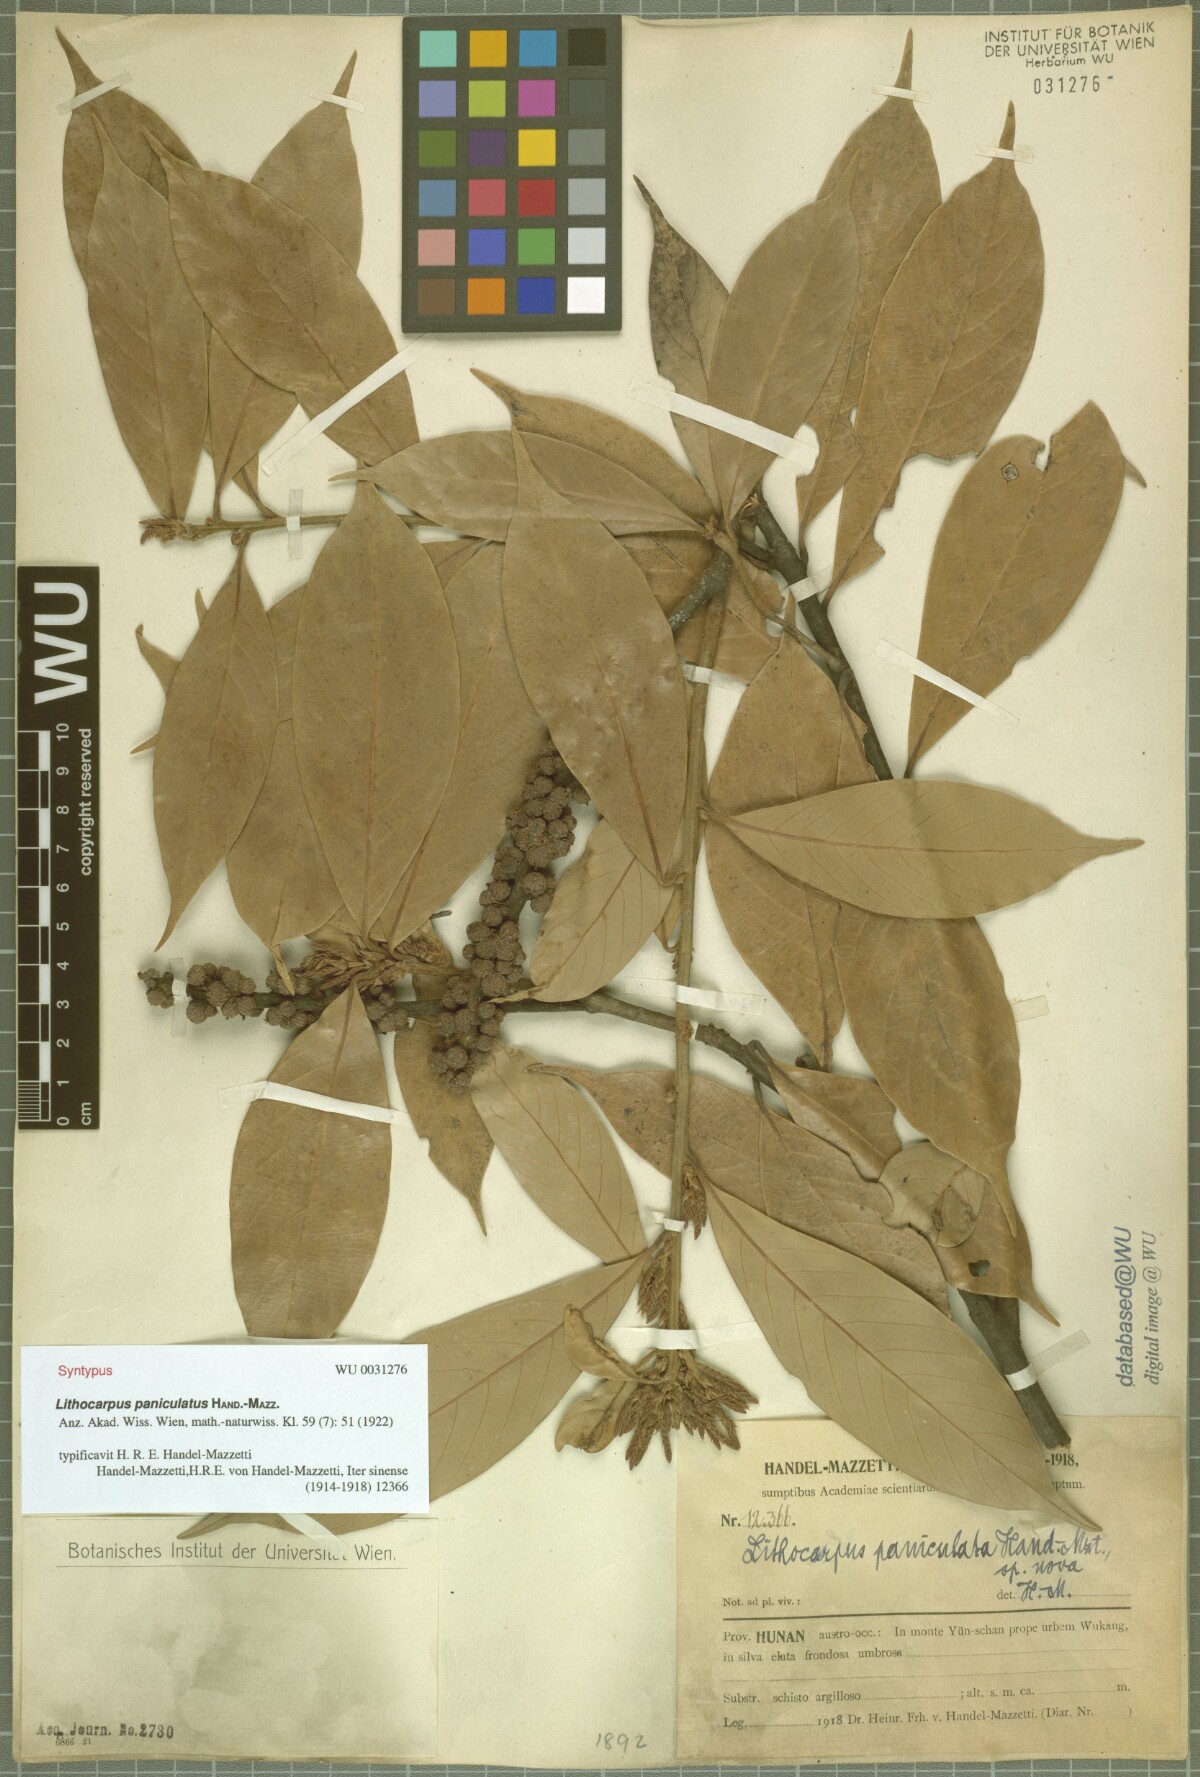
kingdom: Plantae
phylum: Tracheophyta
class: Magnoliopsida
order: Fagales
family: Fagaceae
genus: Lithocarpus
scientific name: Lithocarpus paniculatus
